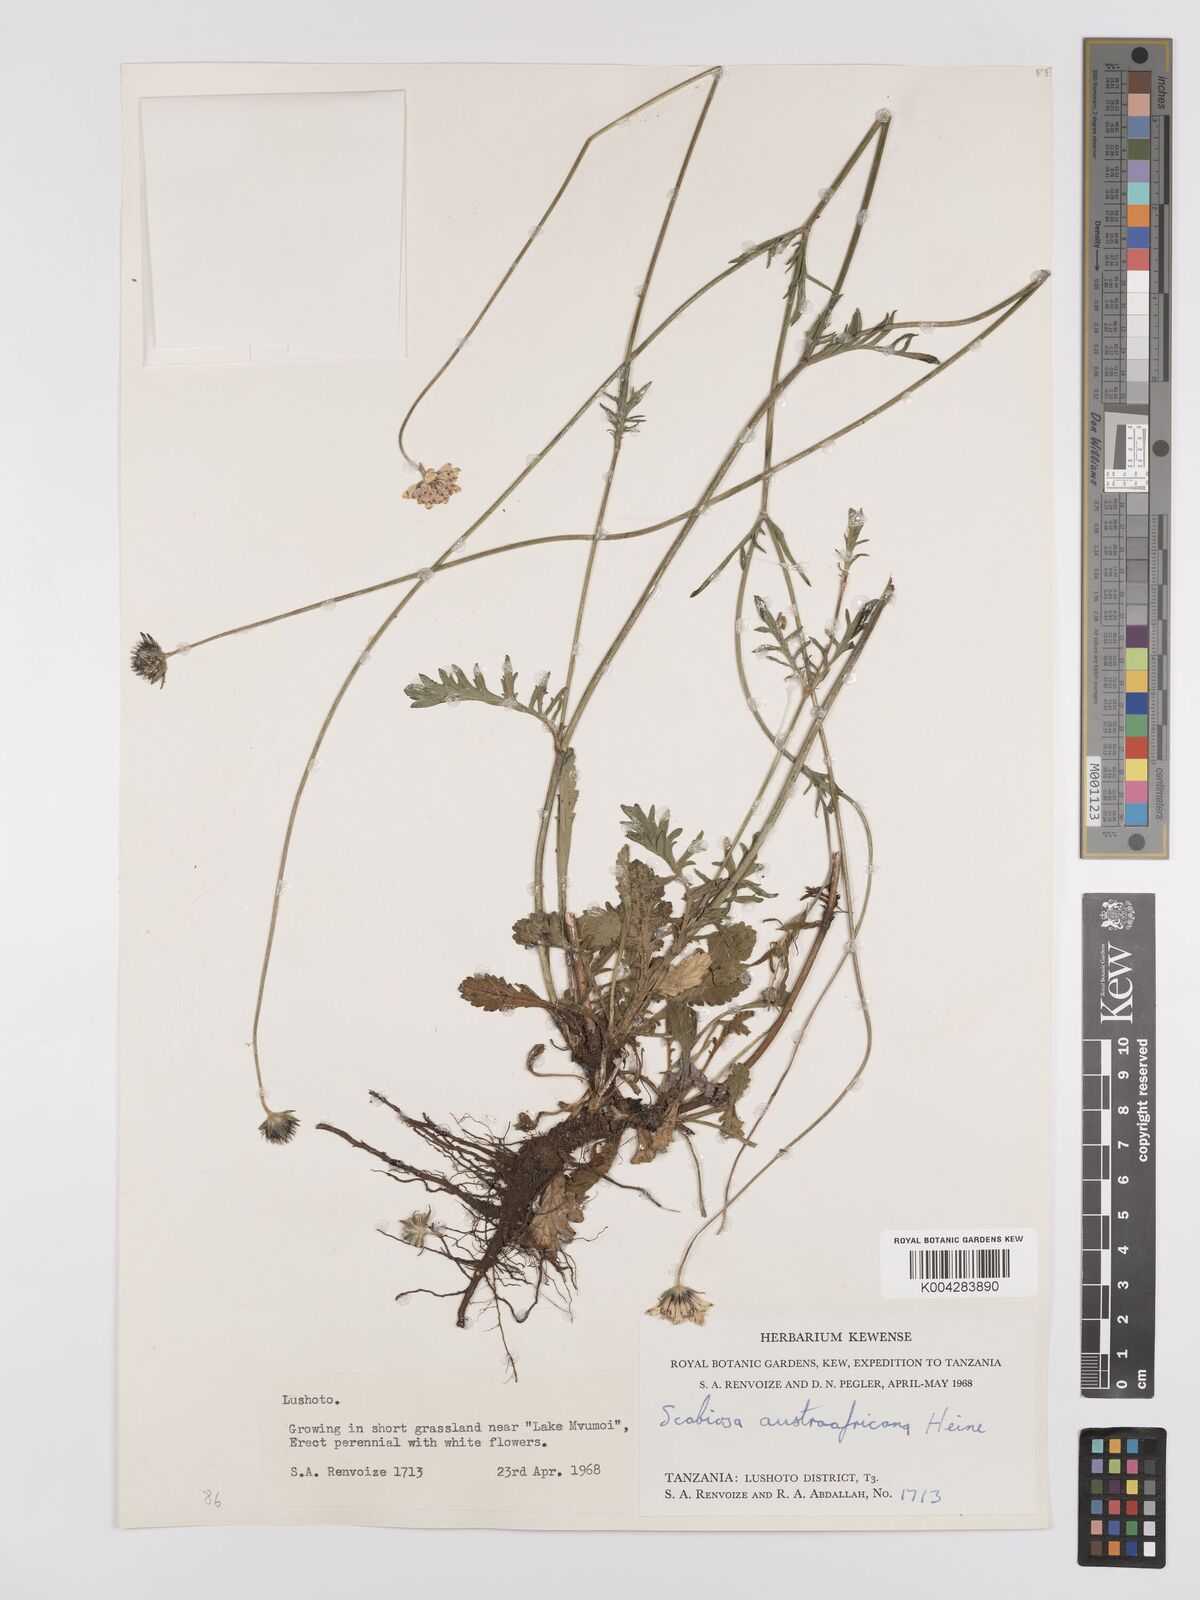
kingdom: Plantae
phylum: Tracheophyta
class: Magnoliopsida
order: Dipsacales
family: Caprifoliaceae
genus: Scabiosa
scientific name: Scabiosa austroafricana
